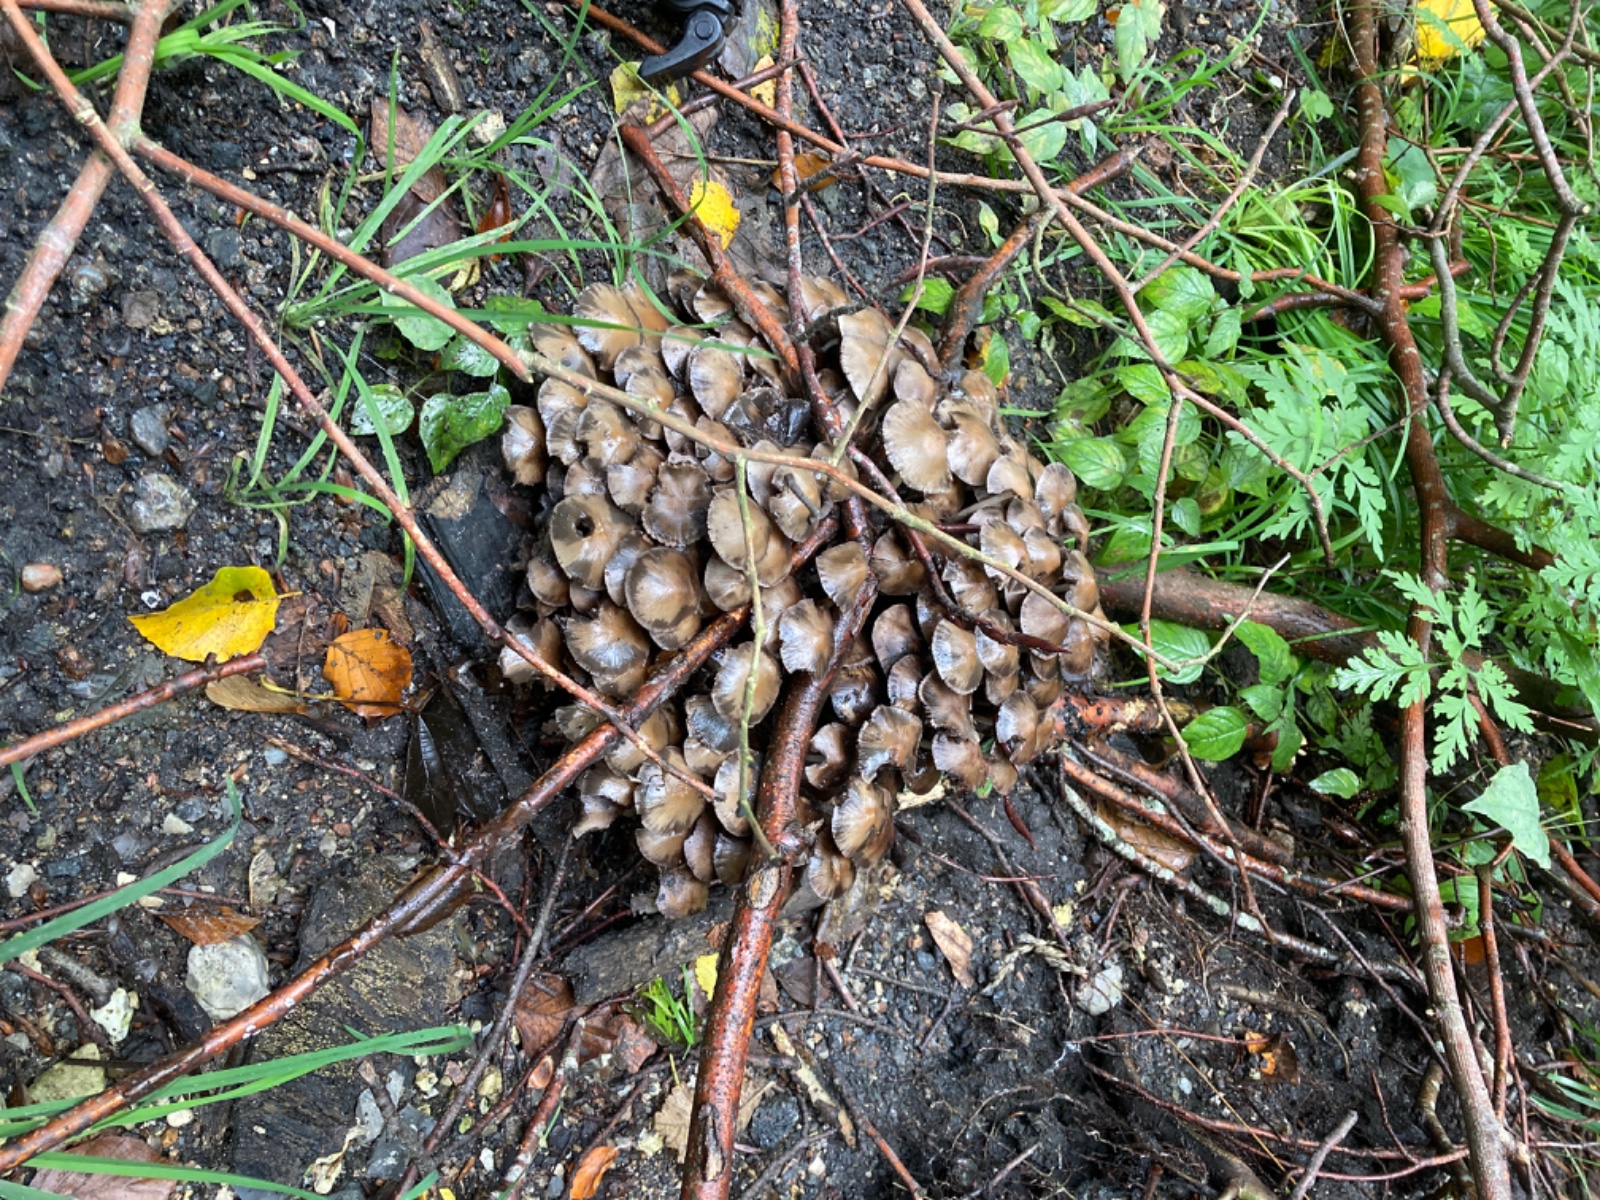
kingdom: Fungi
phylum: Basidiomycota
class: Agaricomycetes
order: Agaricales
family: Psathyrellaceae
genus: Britzelmayria
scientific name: Britzelmayria multipedata
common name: knippe-mørkhat
